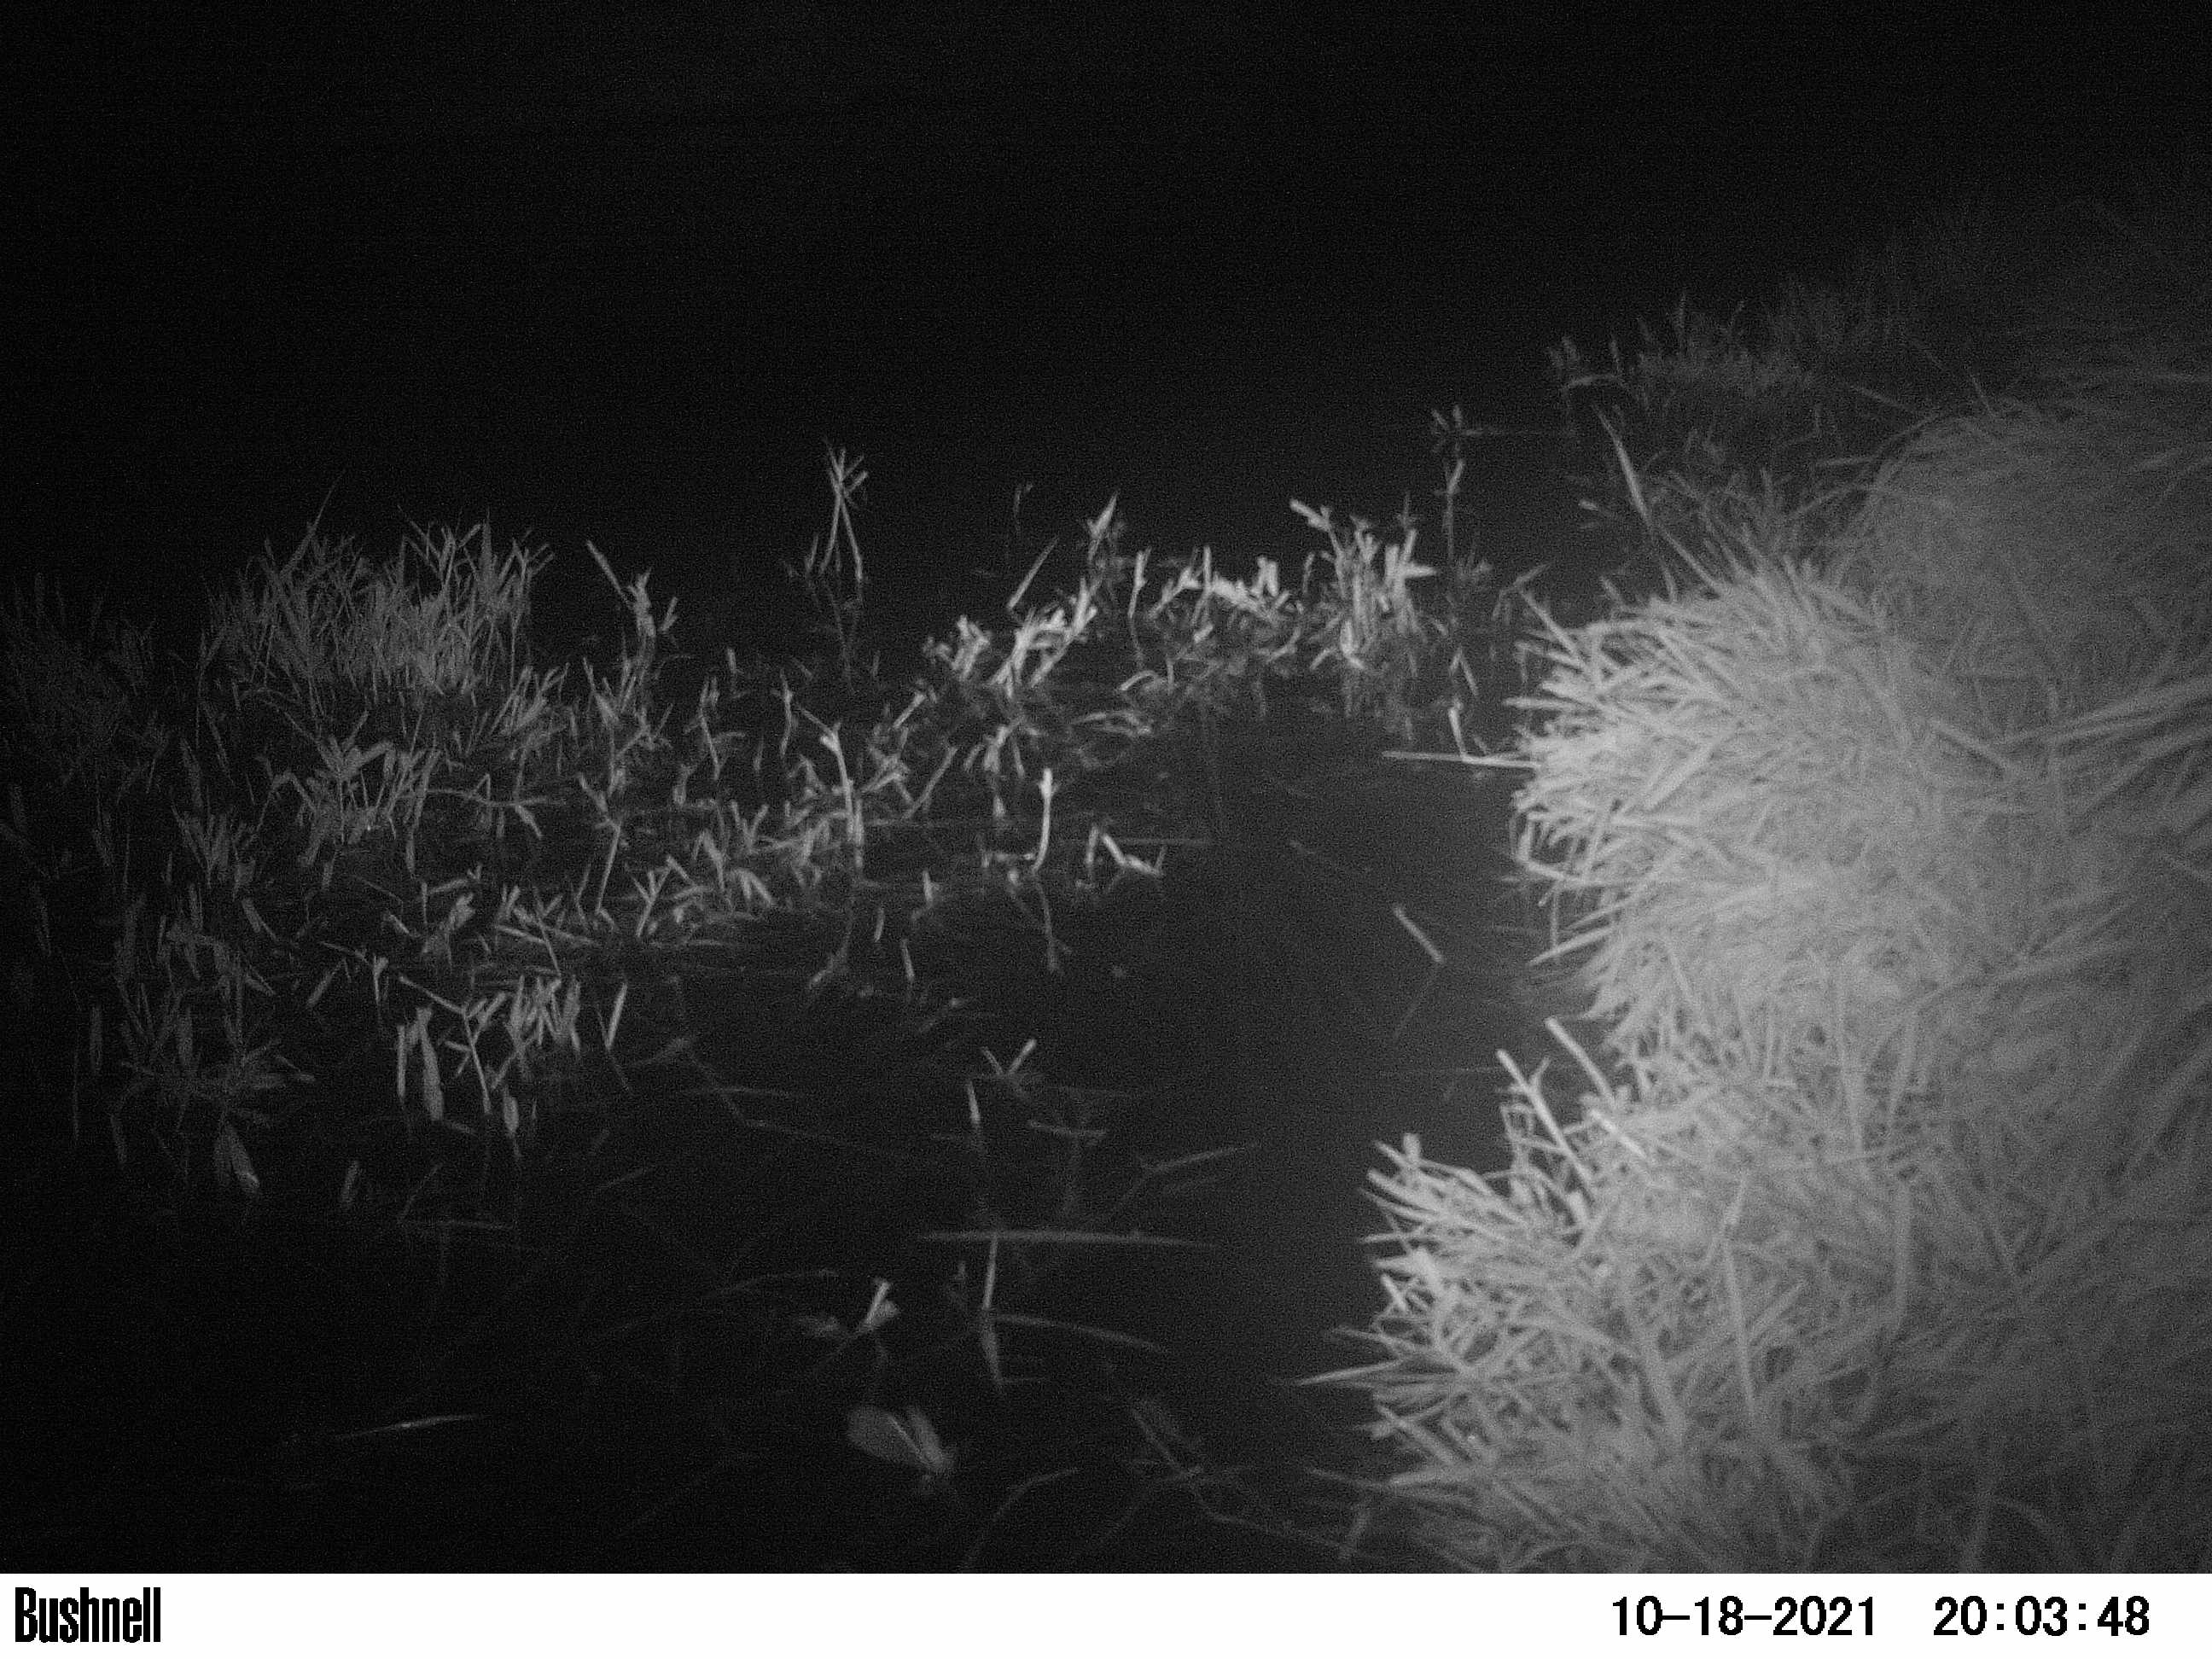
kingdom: Animalia
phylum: Chordata
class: Mammalia
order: Rodentia
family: Muridae
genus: Rattus
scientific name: Rattus norvegicus
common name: Brown rat
